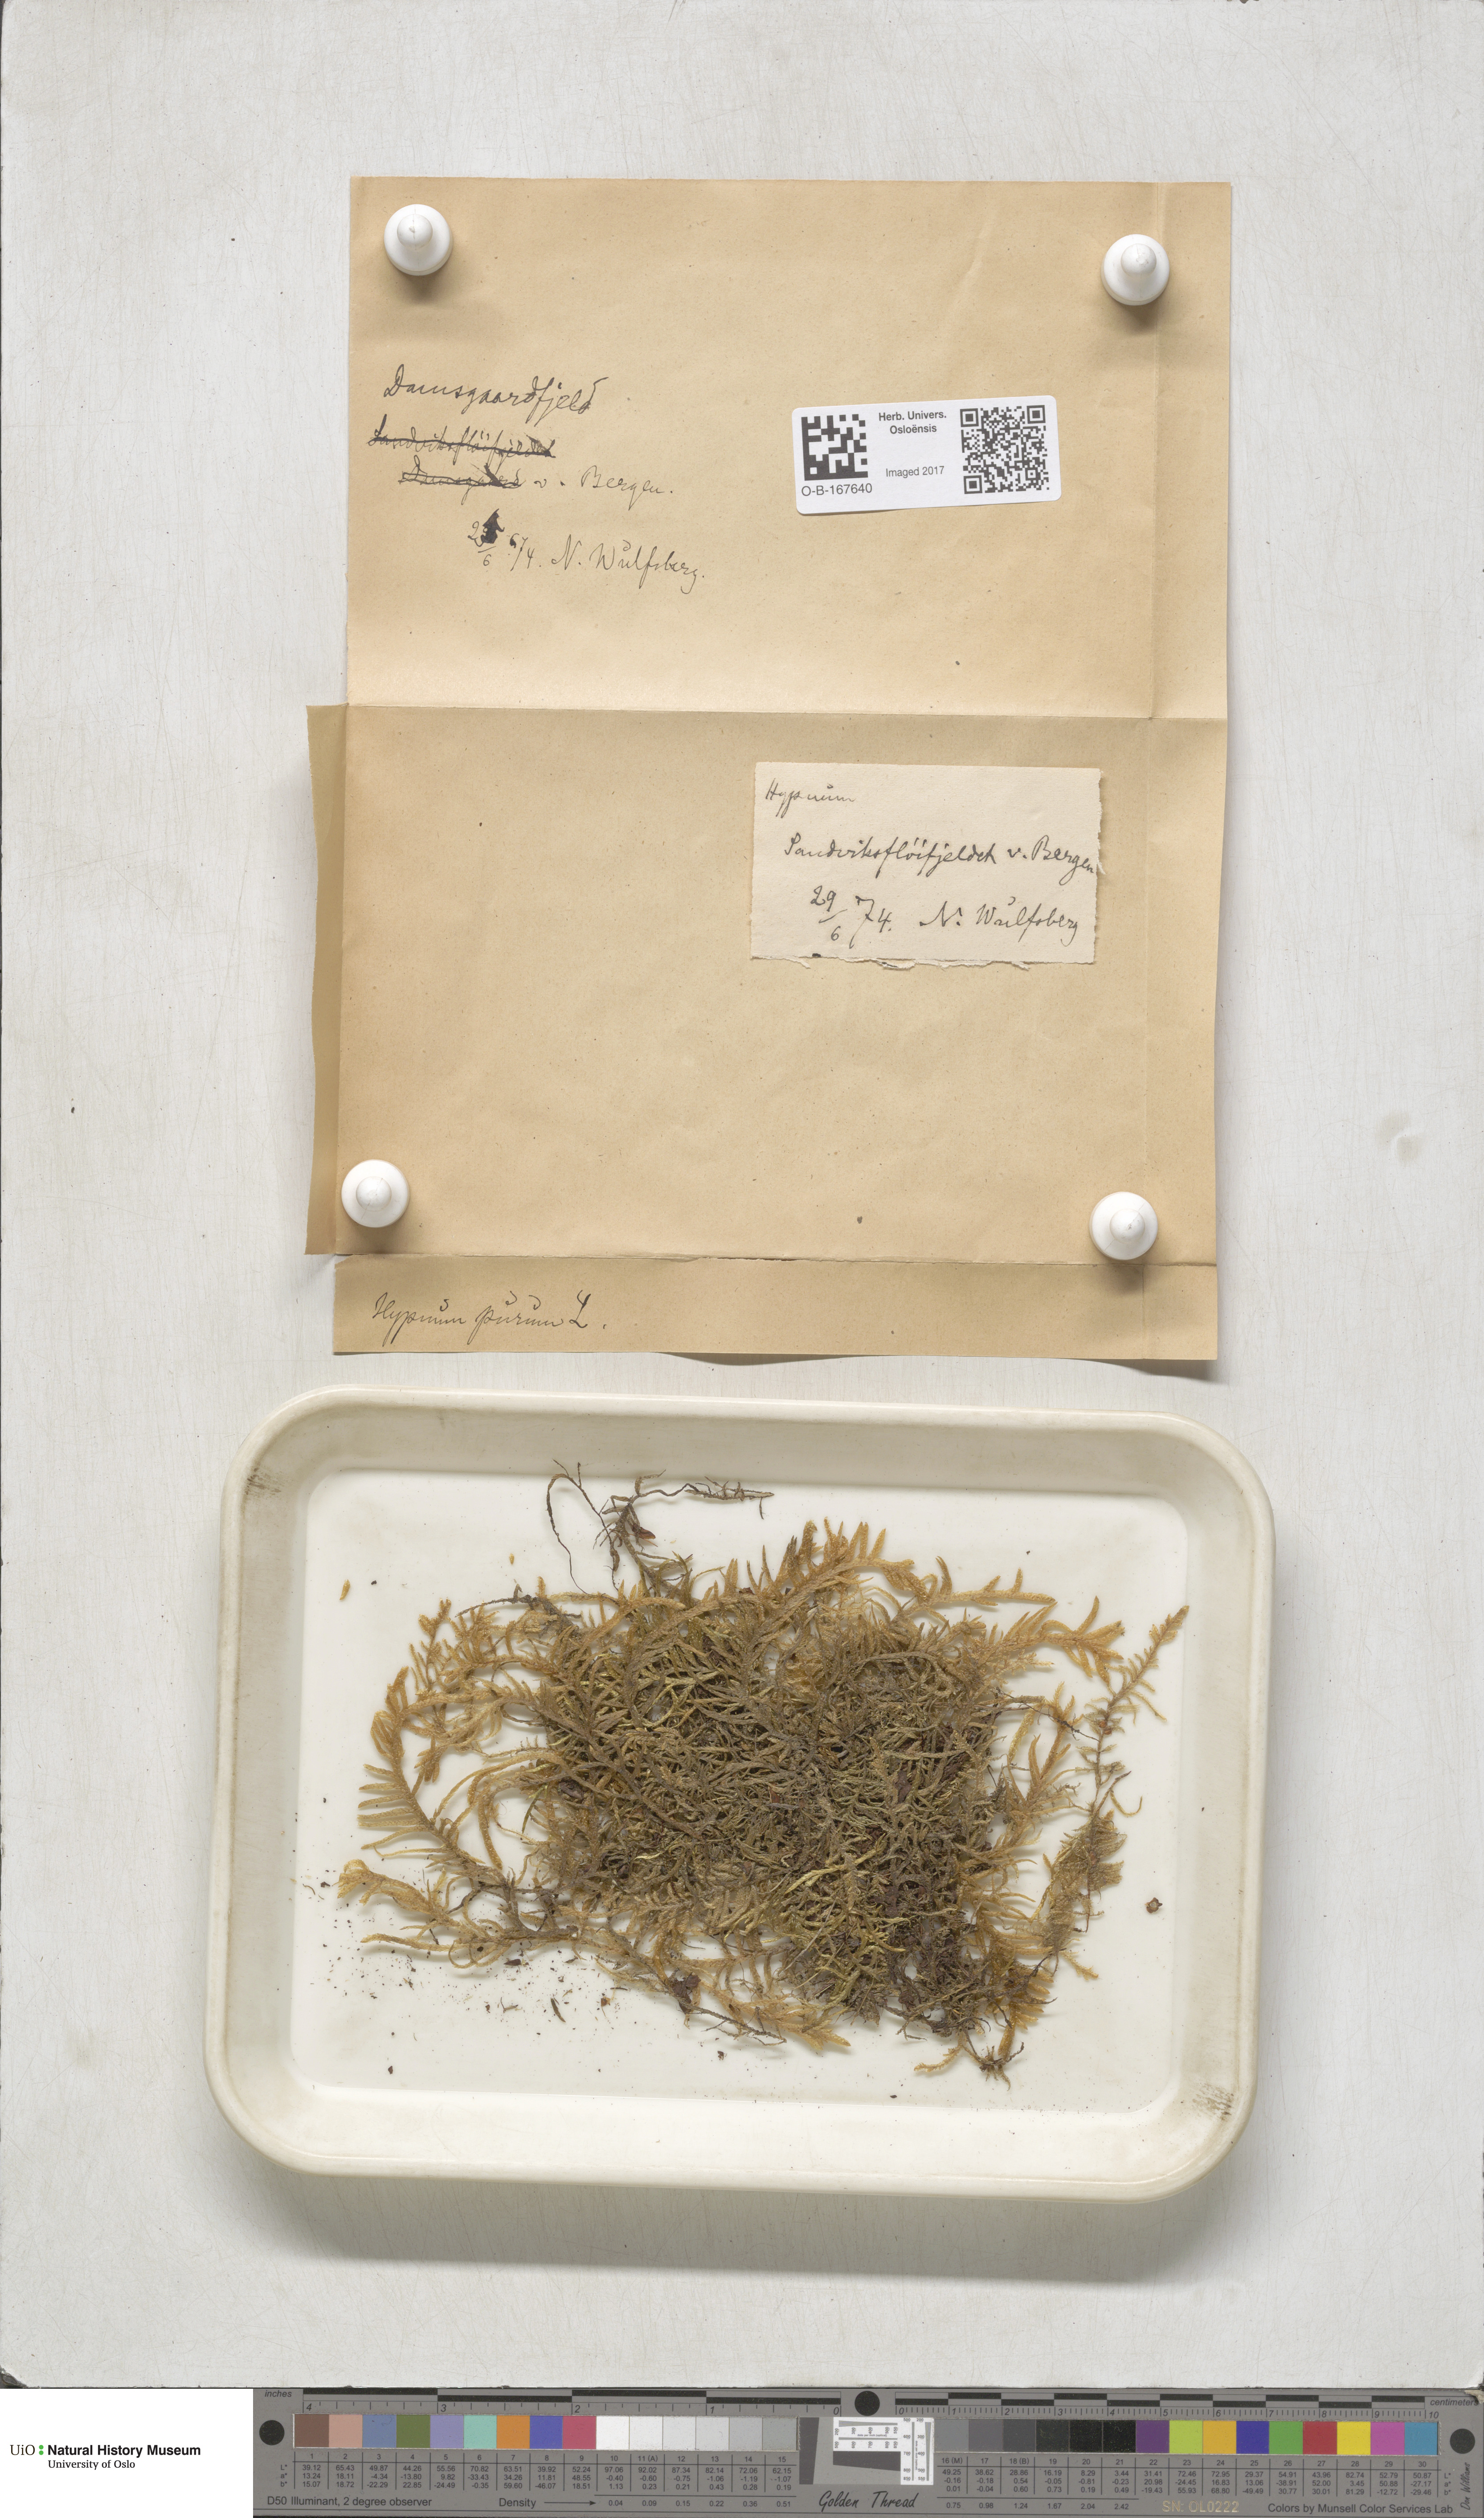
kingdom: Plantae
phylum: Bryophyta
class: Bryopsida
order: Hypnales
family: Brachytheciaceae
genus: Pseudoscleropodium
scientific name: Pseudoscleropodium purum
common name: Neat feather-moss
